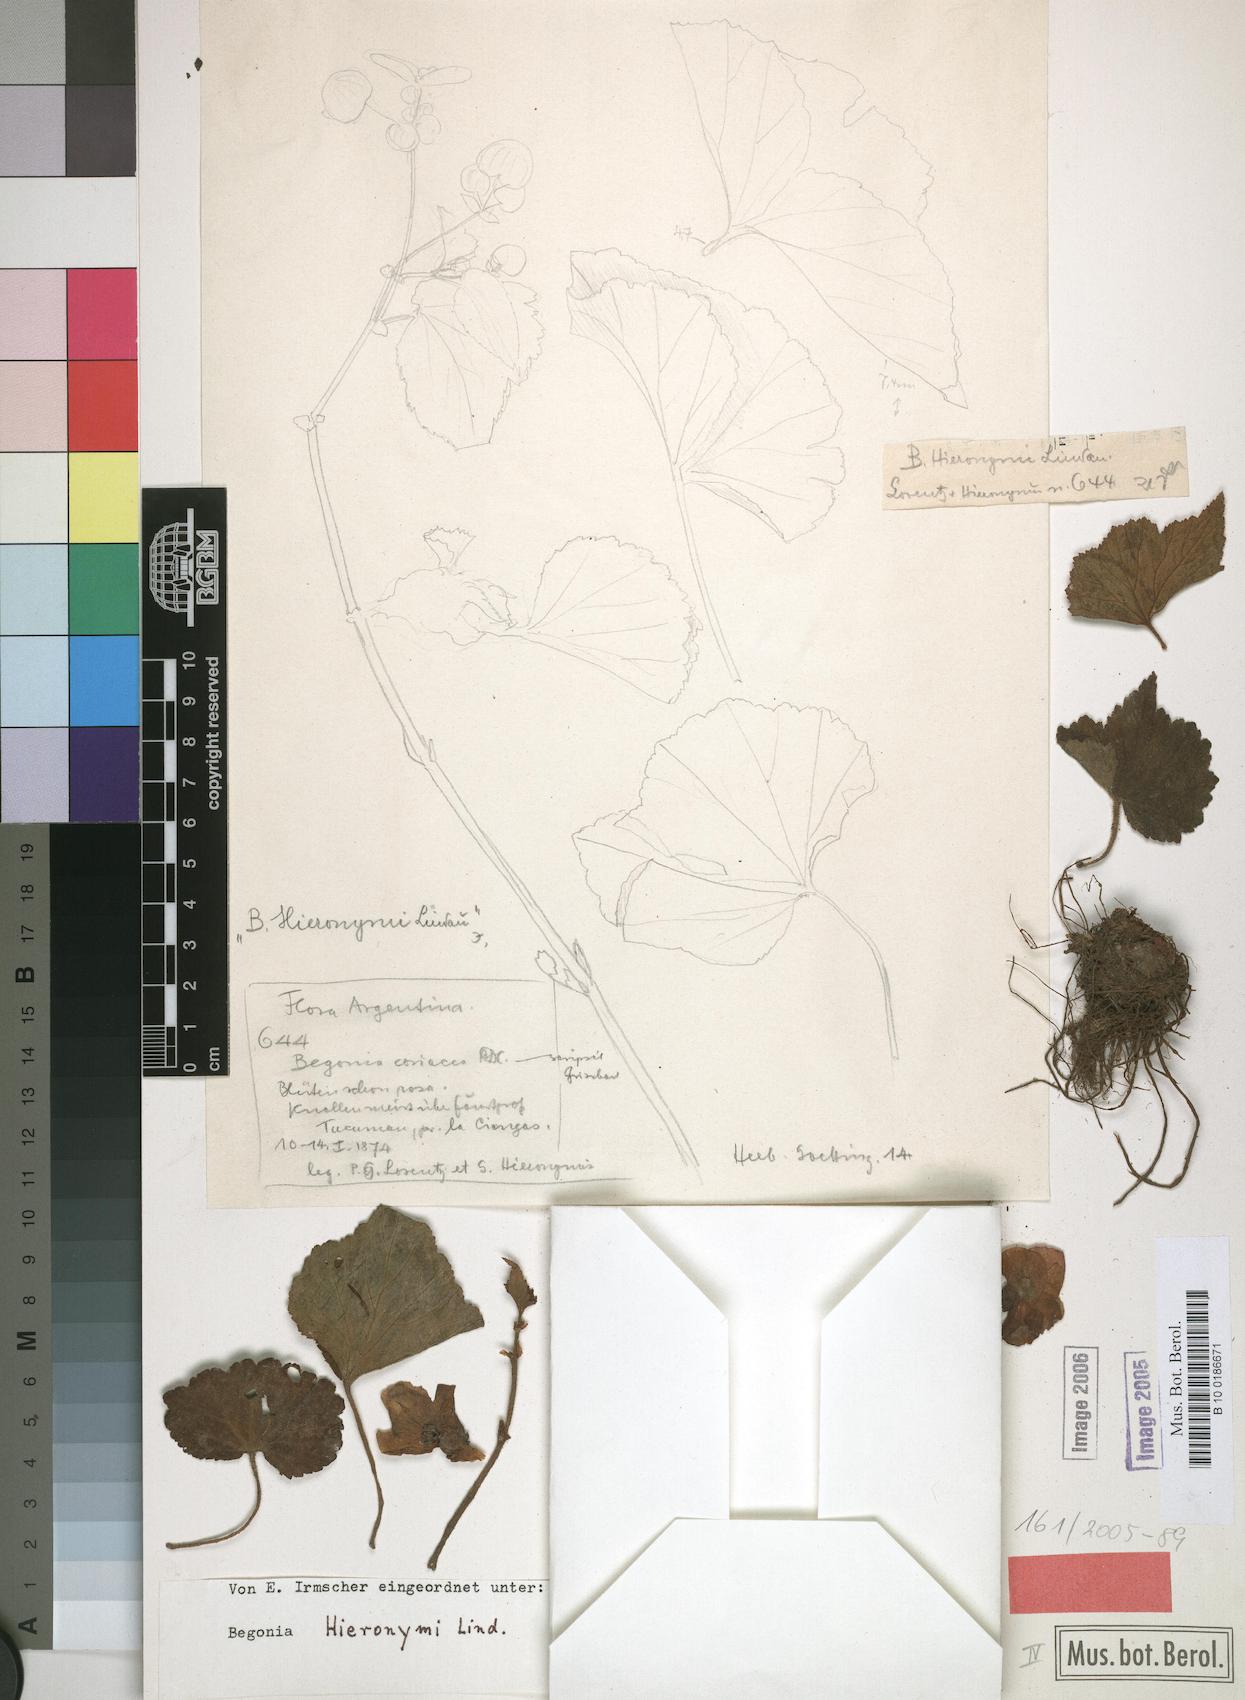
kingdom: Plantae
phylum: Tracheophyta
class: Magnoliopsida
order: Cucurbitales
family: Begoniaceae
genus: Begonia
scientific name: Begonia micranthera
